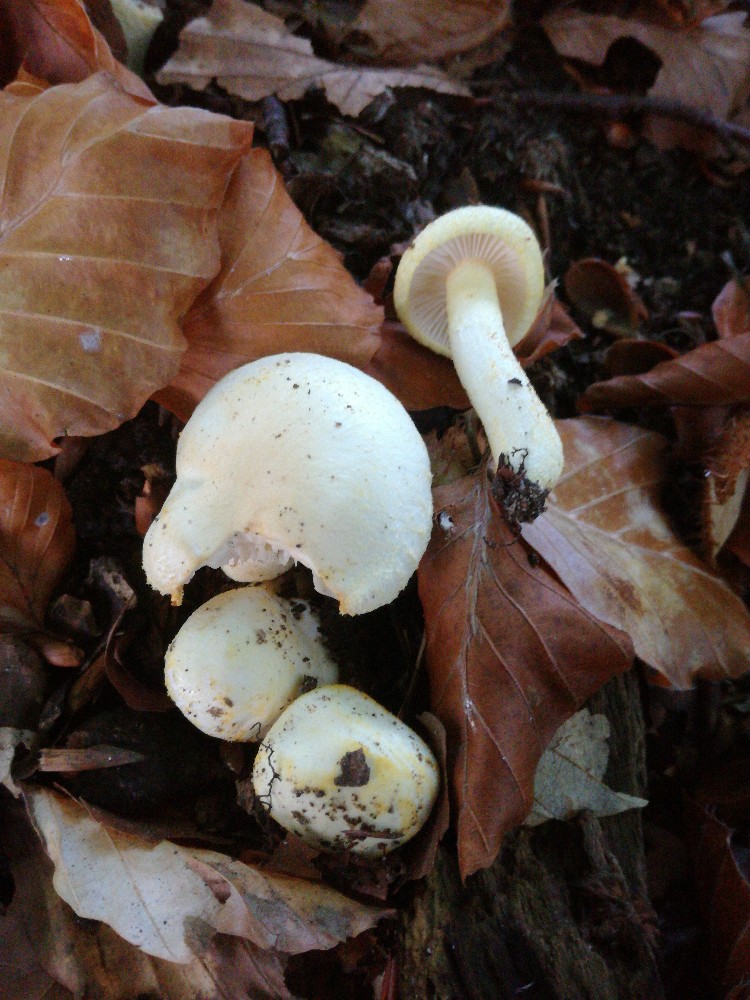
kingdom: Fungi
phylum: Basidiomycota
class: Agaricomycetes
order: Agaricales
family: Hygrophoraceae
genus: Hygrophorus
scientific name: Hygrophorus chrysodon
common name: gulfnugget sneglehat
